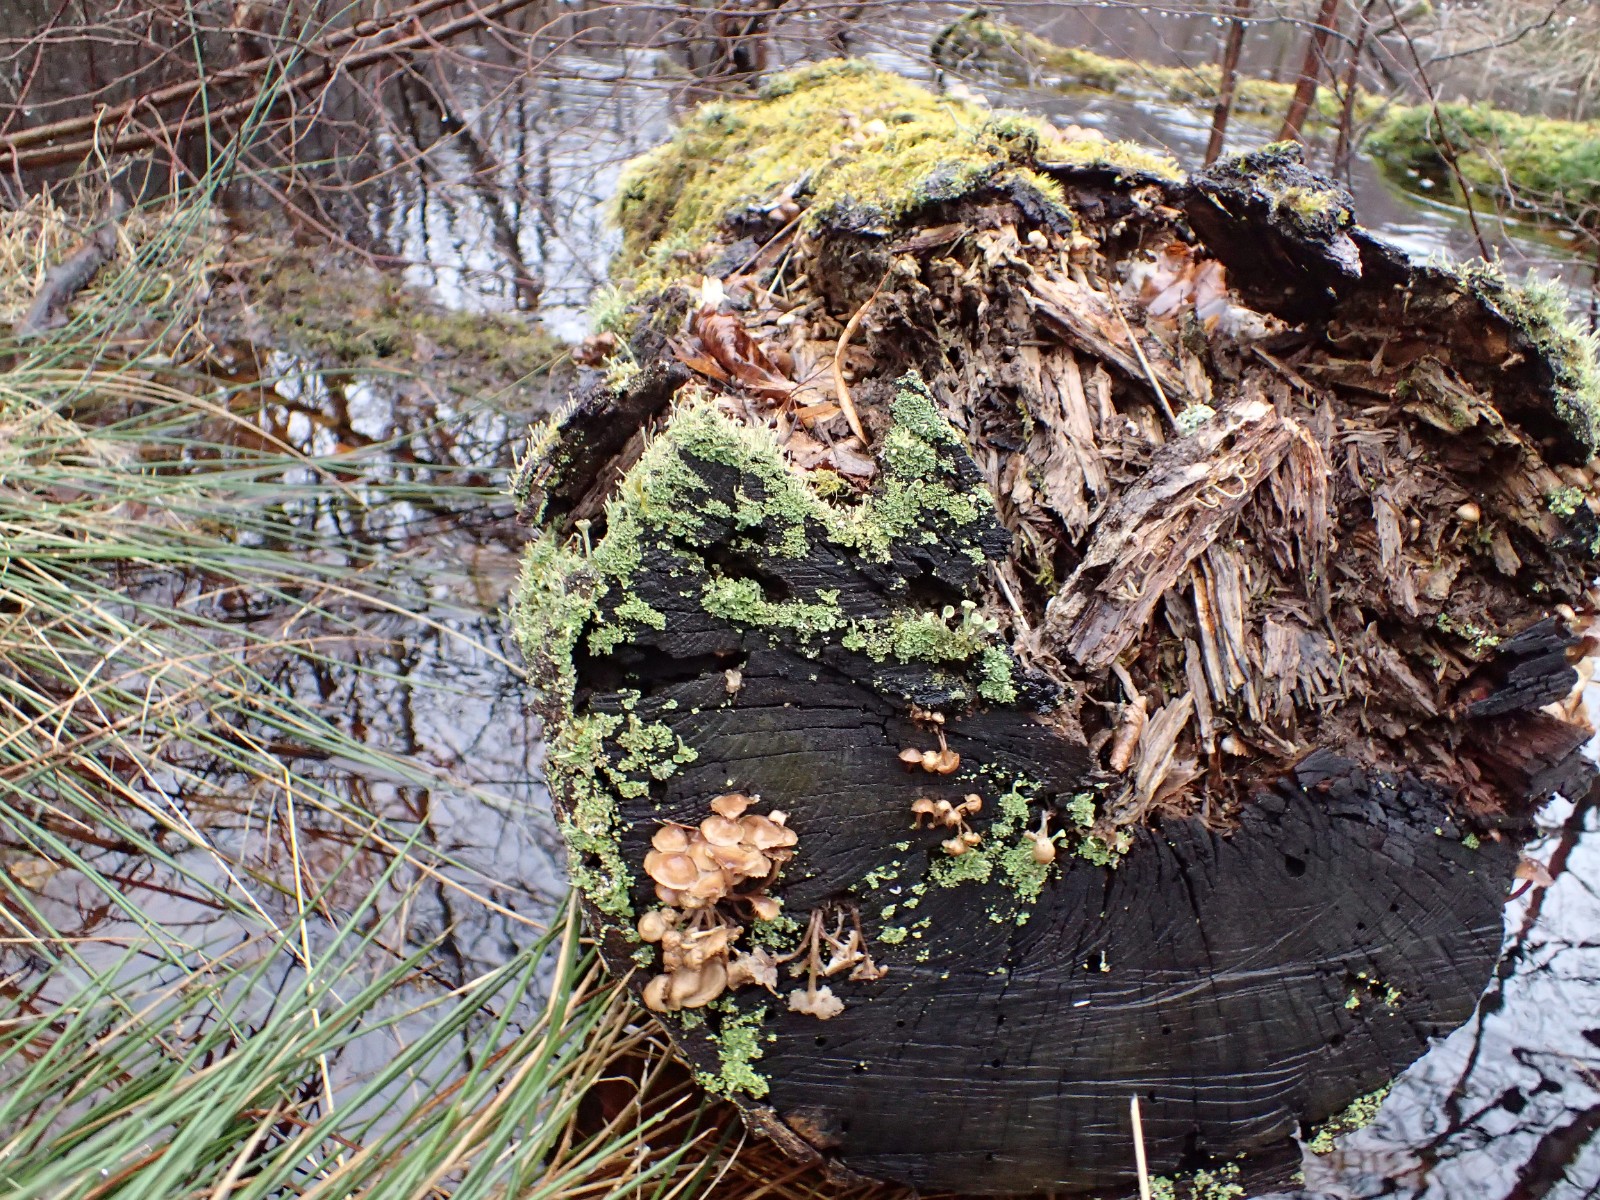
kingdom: Fungi
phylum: Basidiomycota
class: Agaricomycetes
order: Agaricales
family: Mycenaceae
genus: Mycena
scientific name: Mycena tintinnabulum
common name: vinter-huesvamp
